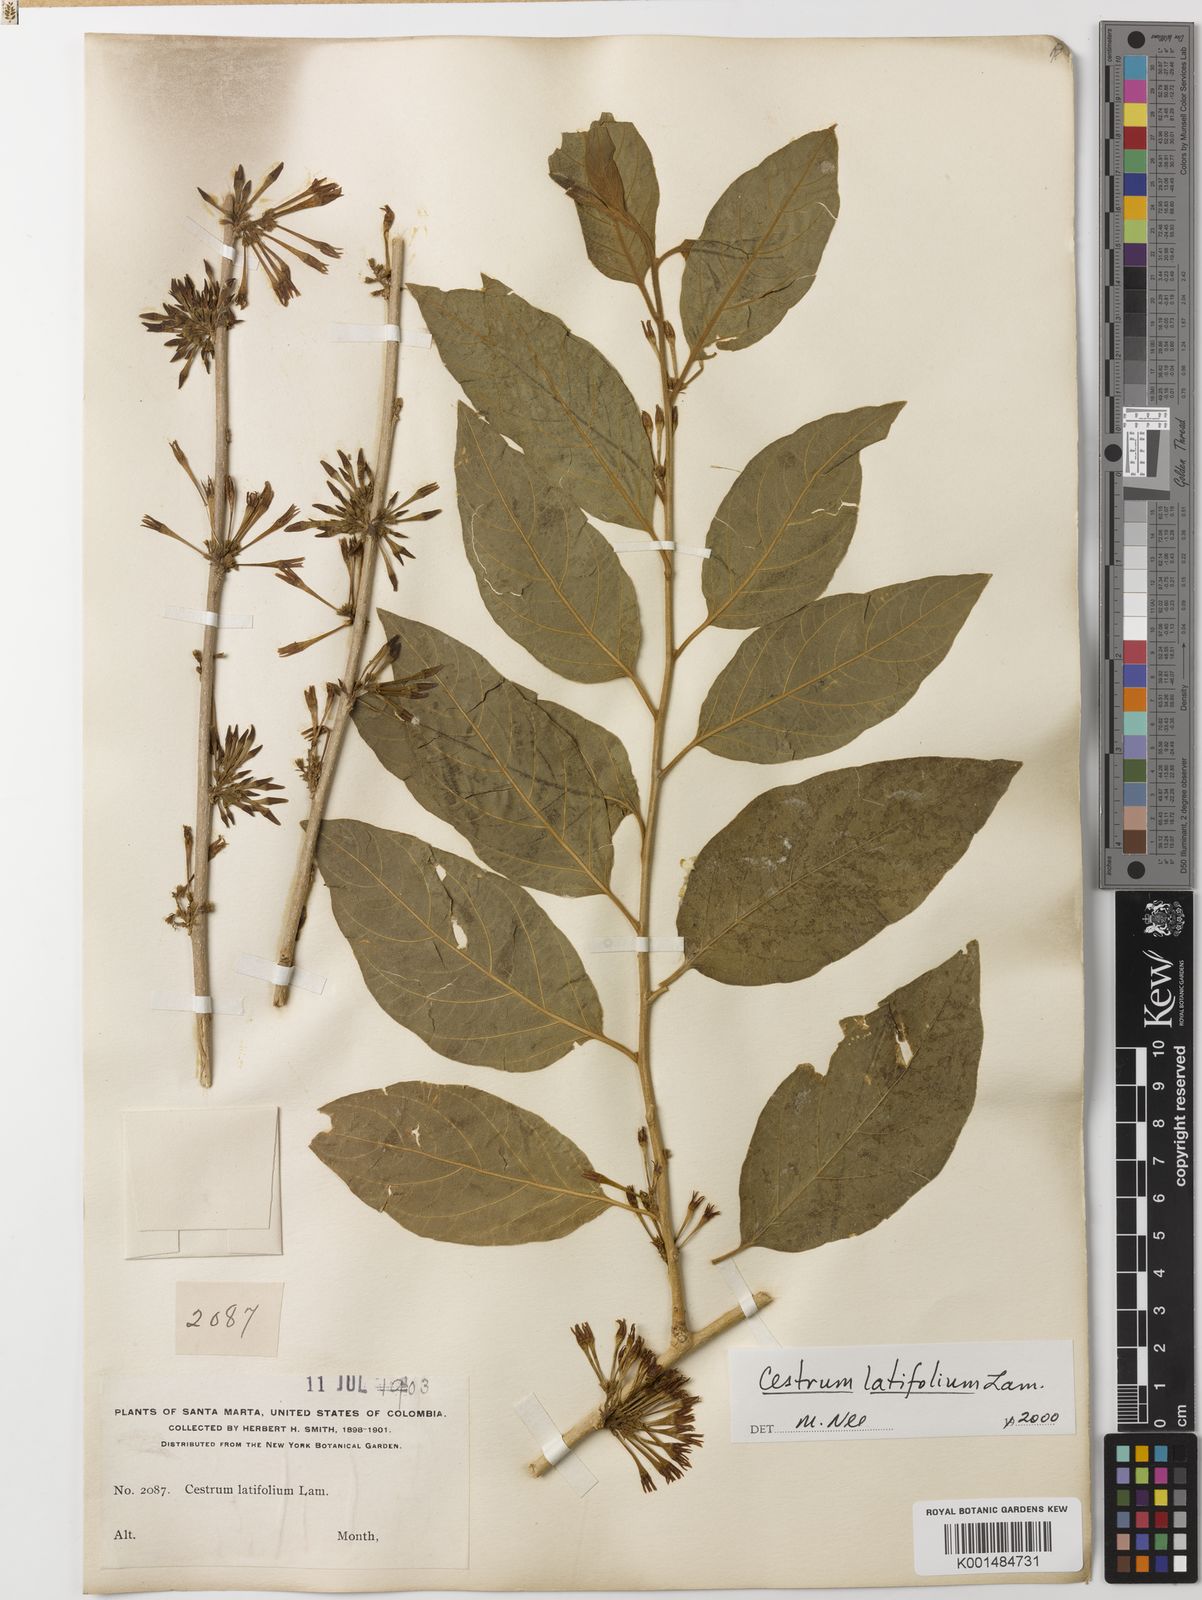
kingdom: Plantae
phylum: Tracheophyta
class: Magnoliopsida
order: Solanales
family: Solanaceae
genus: Cestrum
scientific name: Cestrum latifolium
